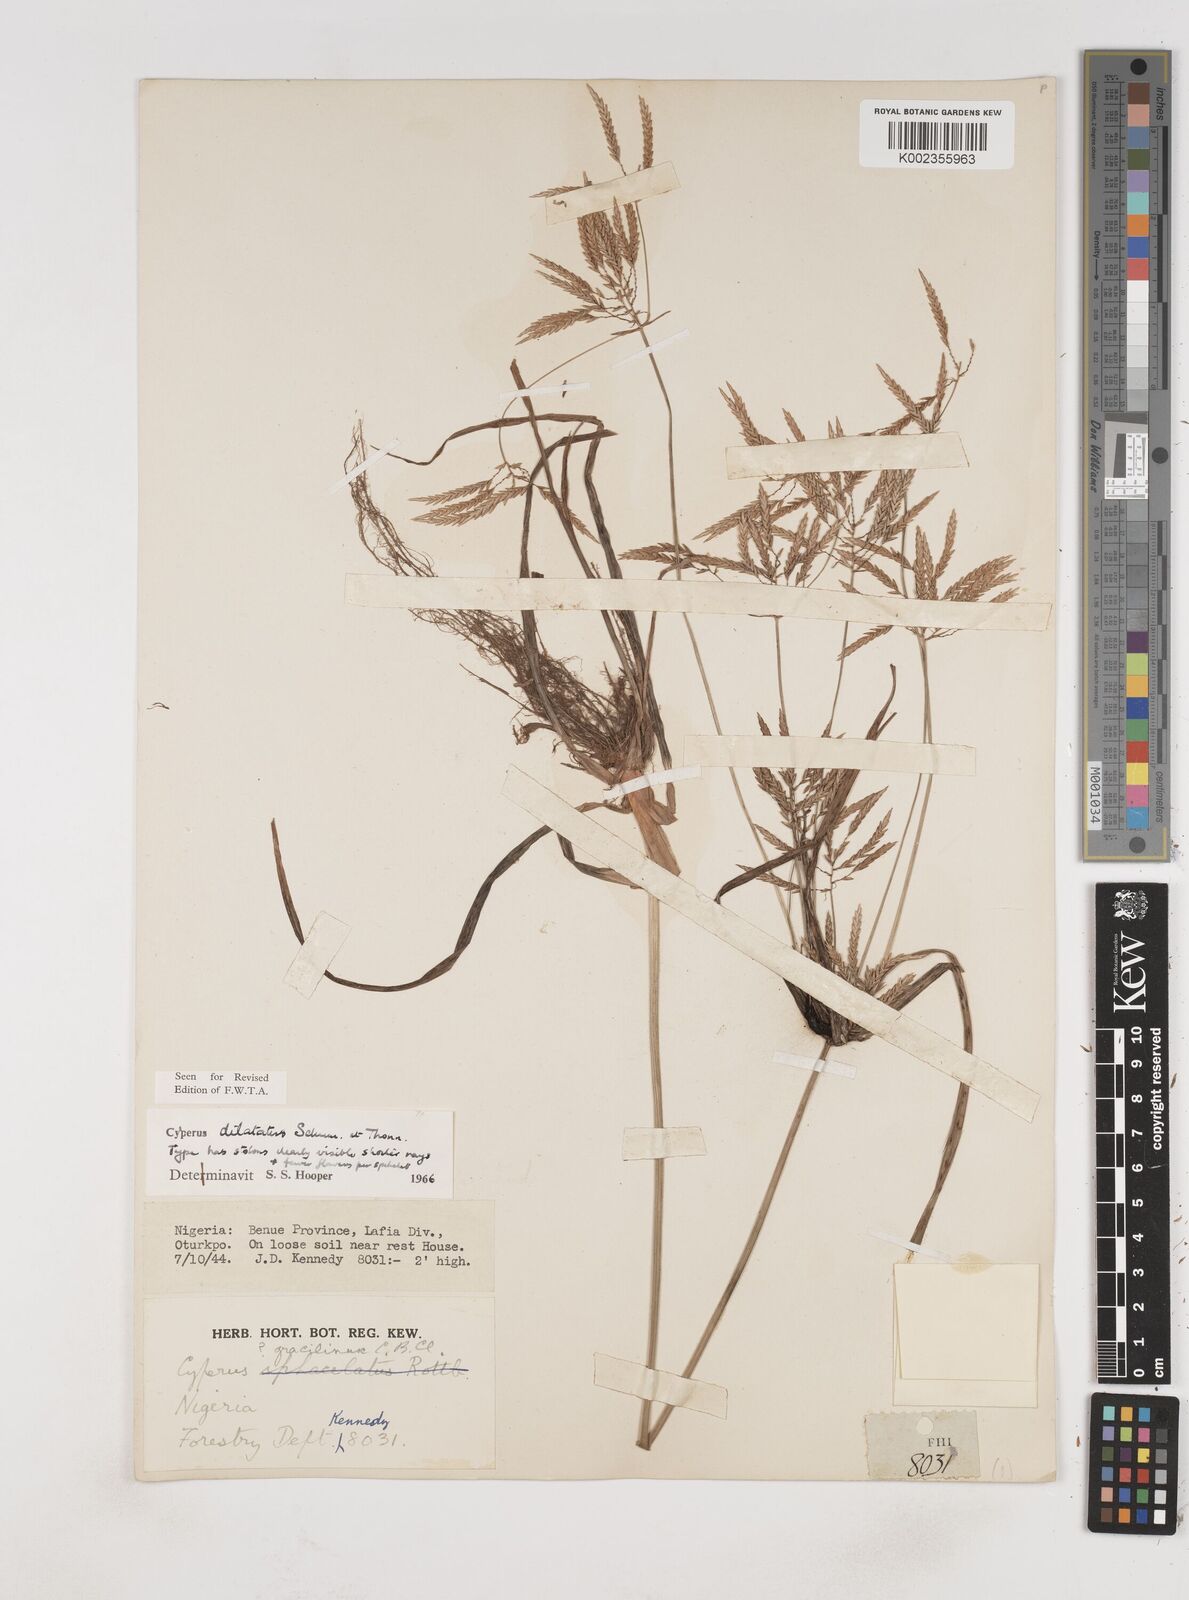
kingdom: Plantae
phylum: Tracheophyta
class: Liliopsida
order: Poales
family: Cyperaceae
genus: Cyperus
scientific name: Cyperus dilatatus
